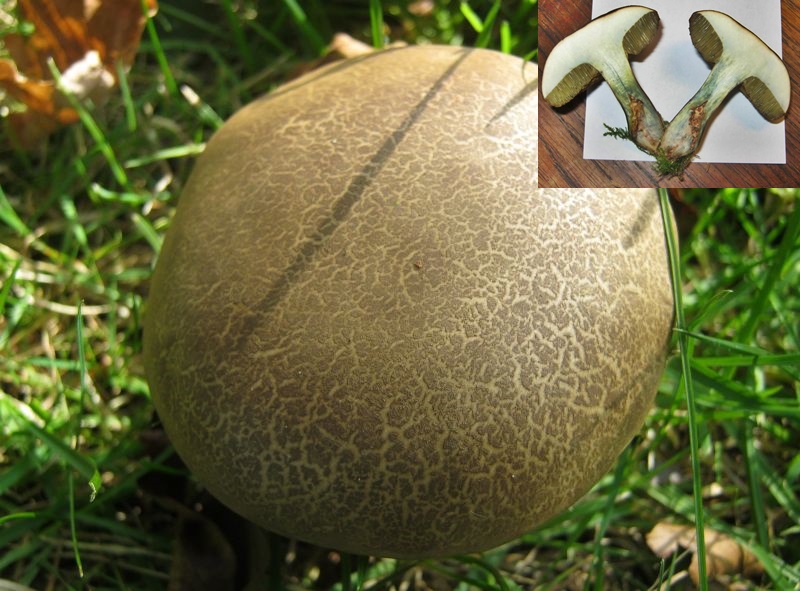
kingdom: Fungi
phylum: Basidiomycota
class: Agaricomycetes
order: Boletales
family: Boletaceae
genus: Xerocomellus
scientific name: Xerocomellus
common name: dværgrørhat
